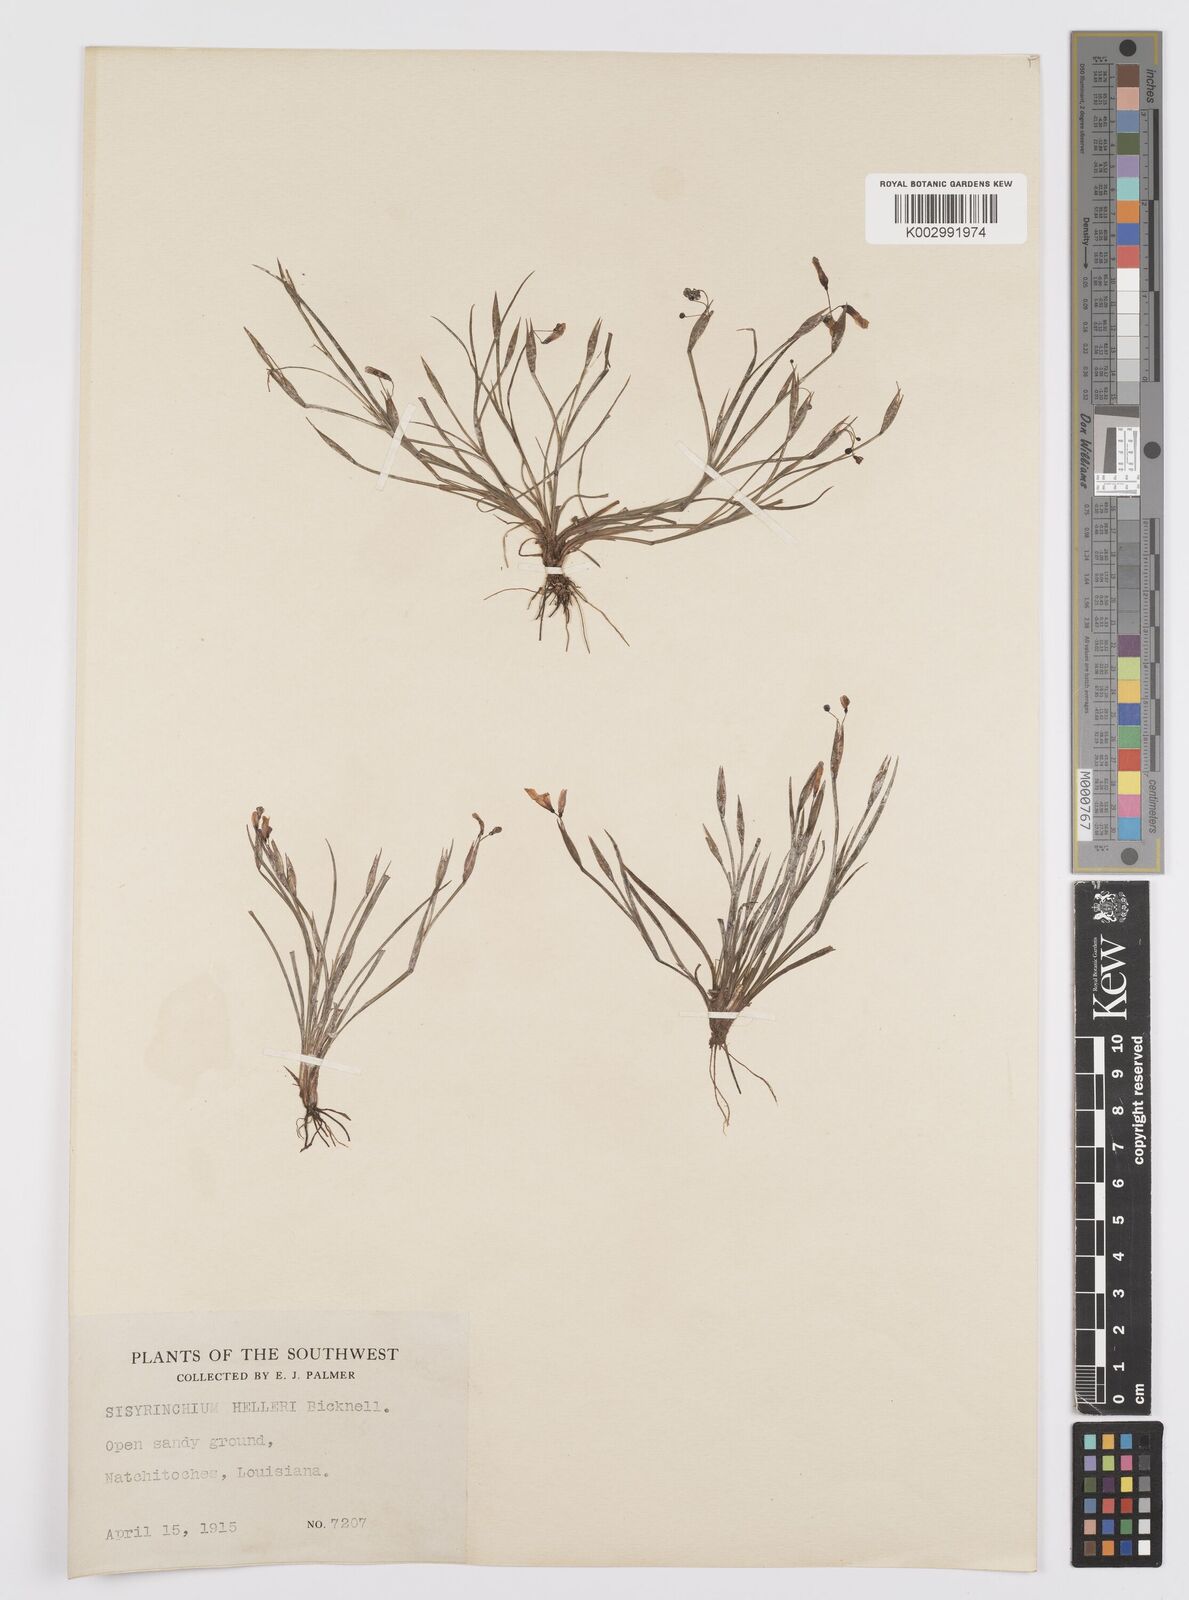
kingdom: Plantae
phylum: Tracheophyta
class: Liliopsida
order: Asparagales
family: Iridaceae
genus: Sisyrinchium
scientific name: Sisyrinchium pruinosum
